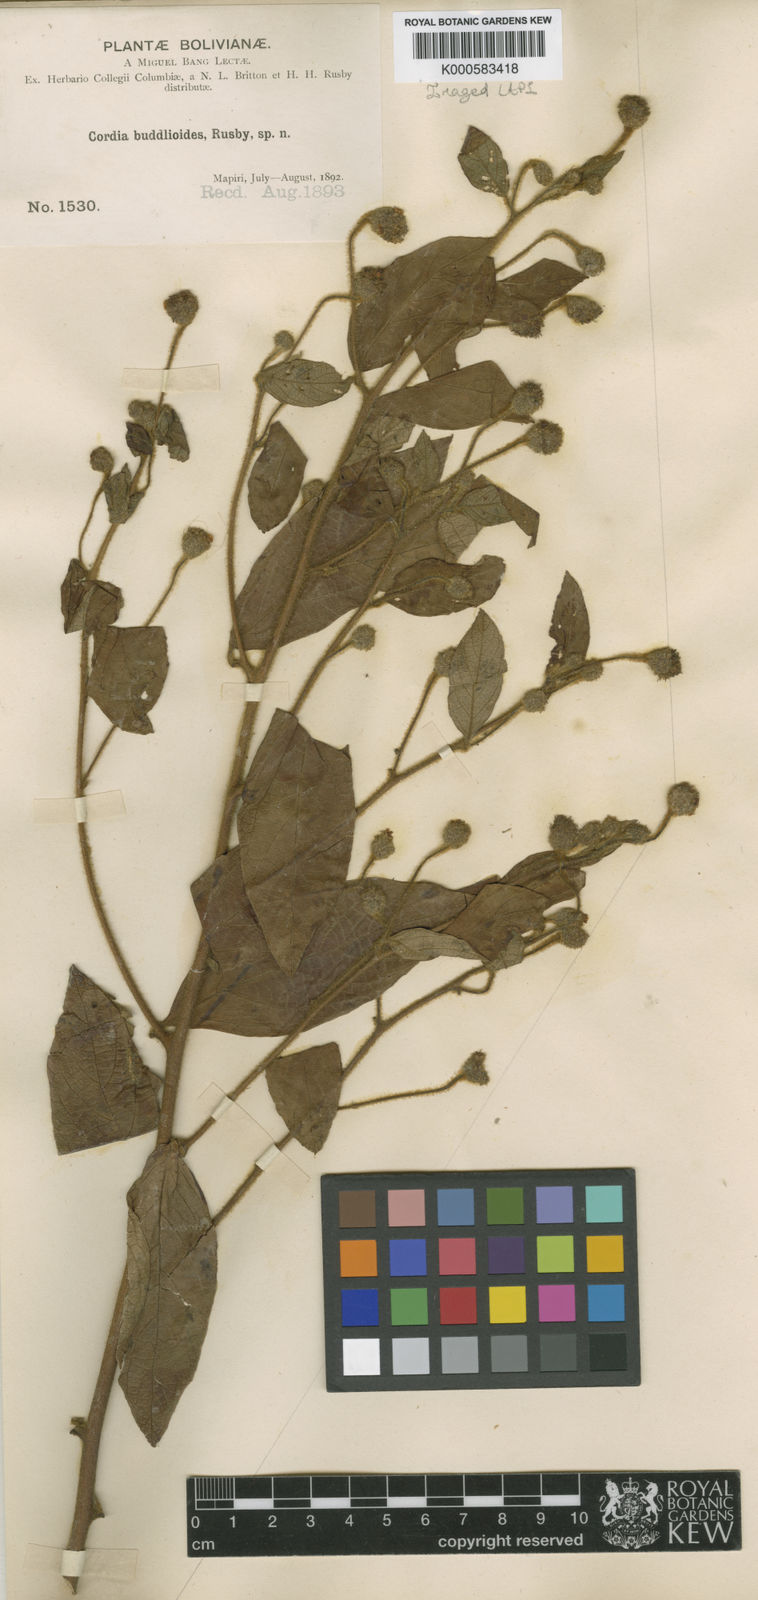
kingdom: Plantae
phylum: Tracheophyta
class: Magnoliopsida
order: Boraginales
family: Cordiaceae
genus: Cordia
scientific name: Cordia
